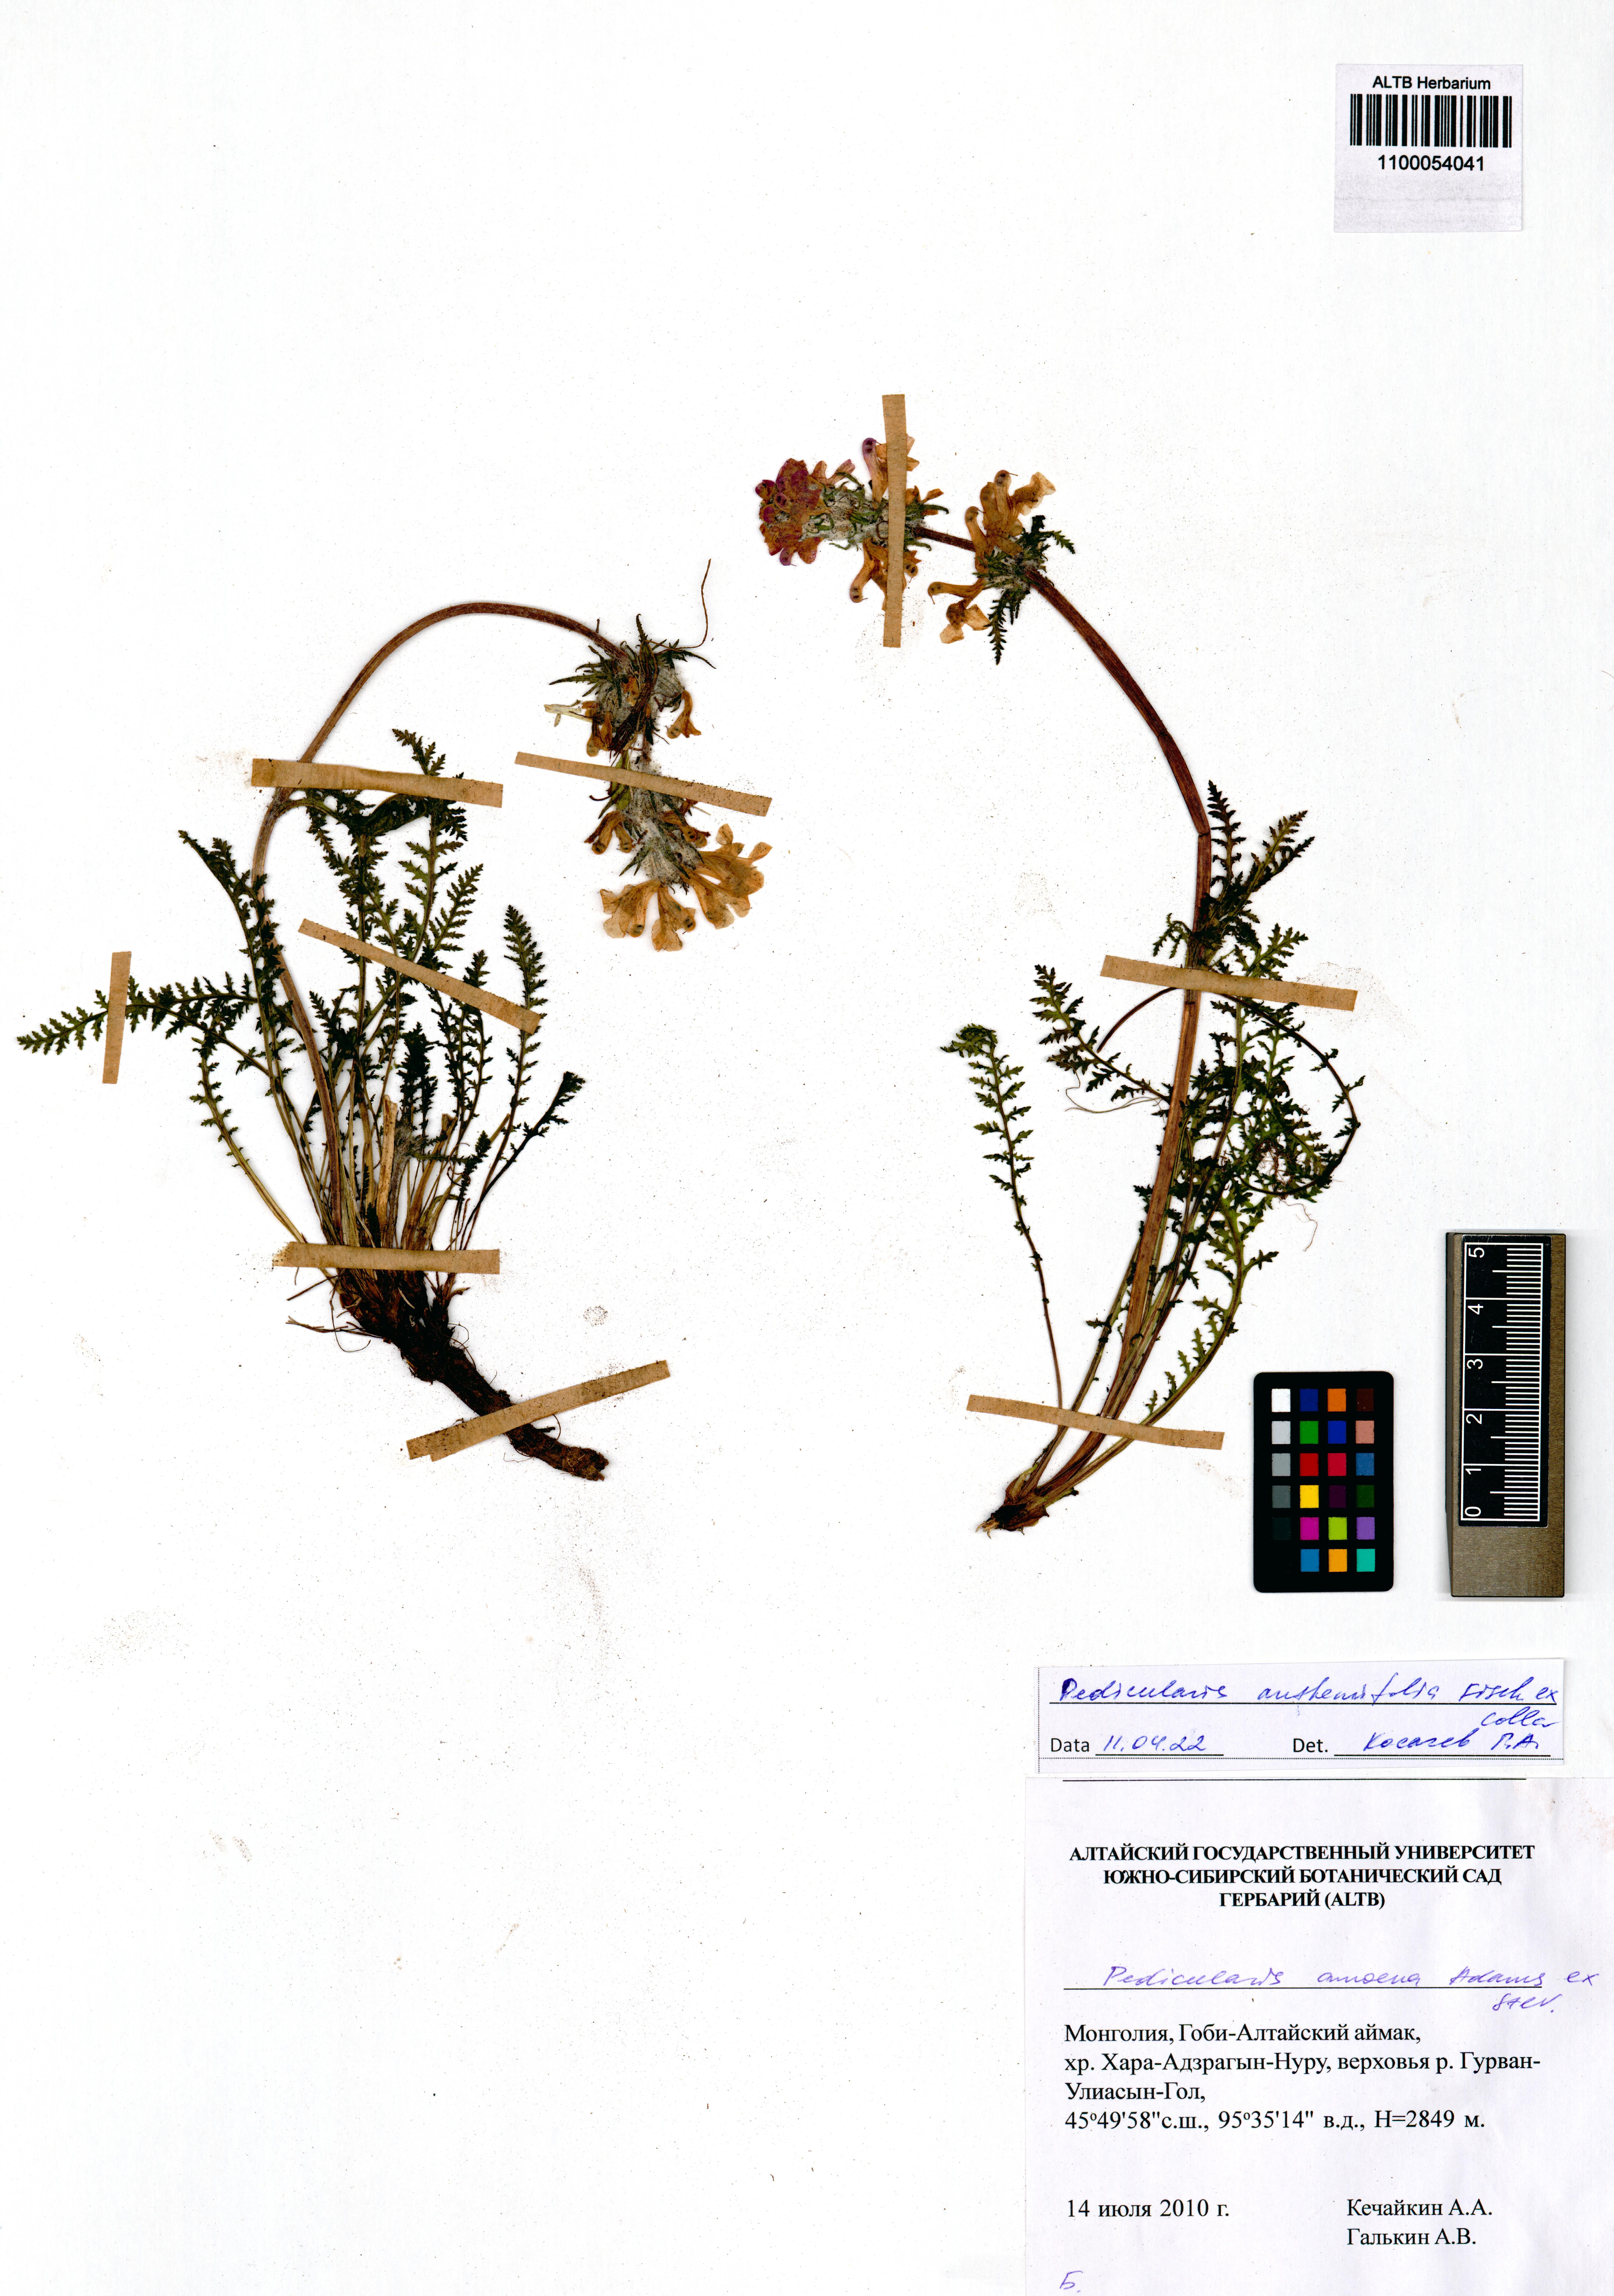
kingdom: Plantae
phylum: Tracheophyta
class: Magnoliopsida
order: Lamiales
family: Orobanchaceae
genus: Pedicularis
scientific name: Pedicularis anthemifolia
